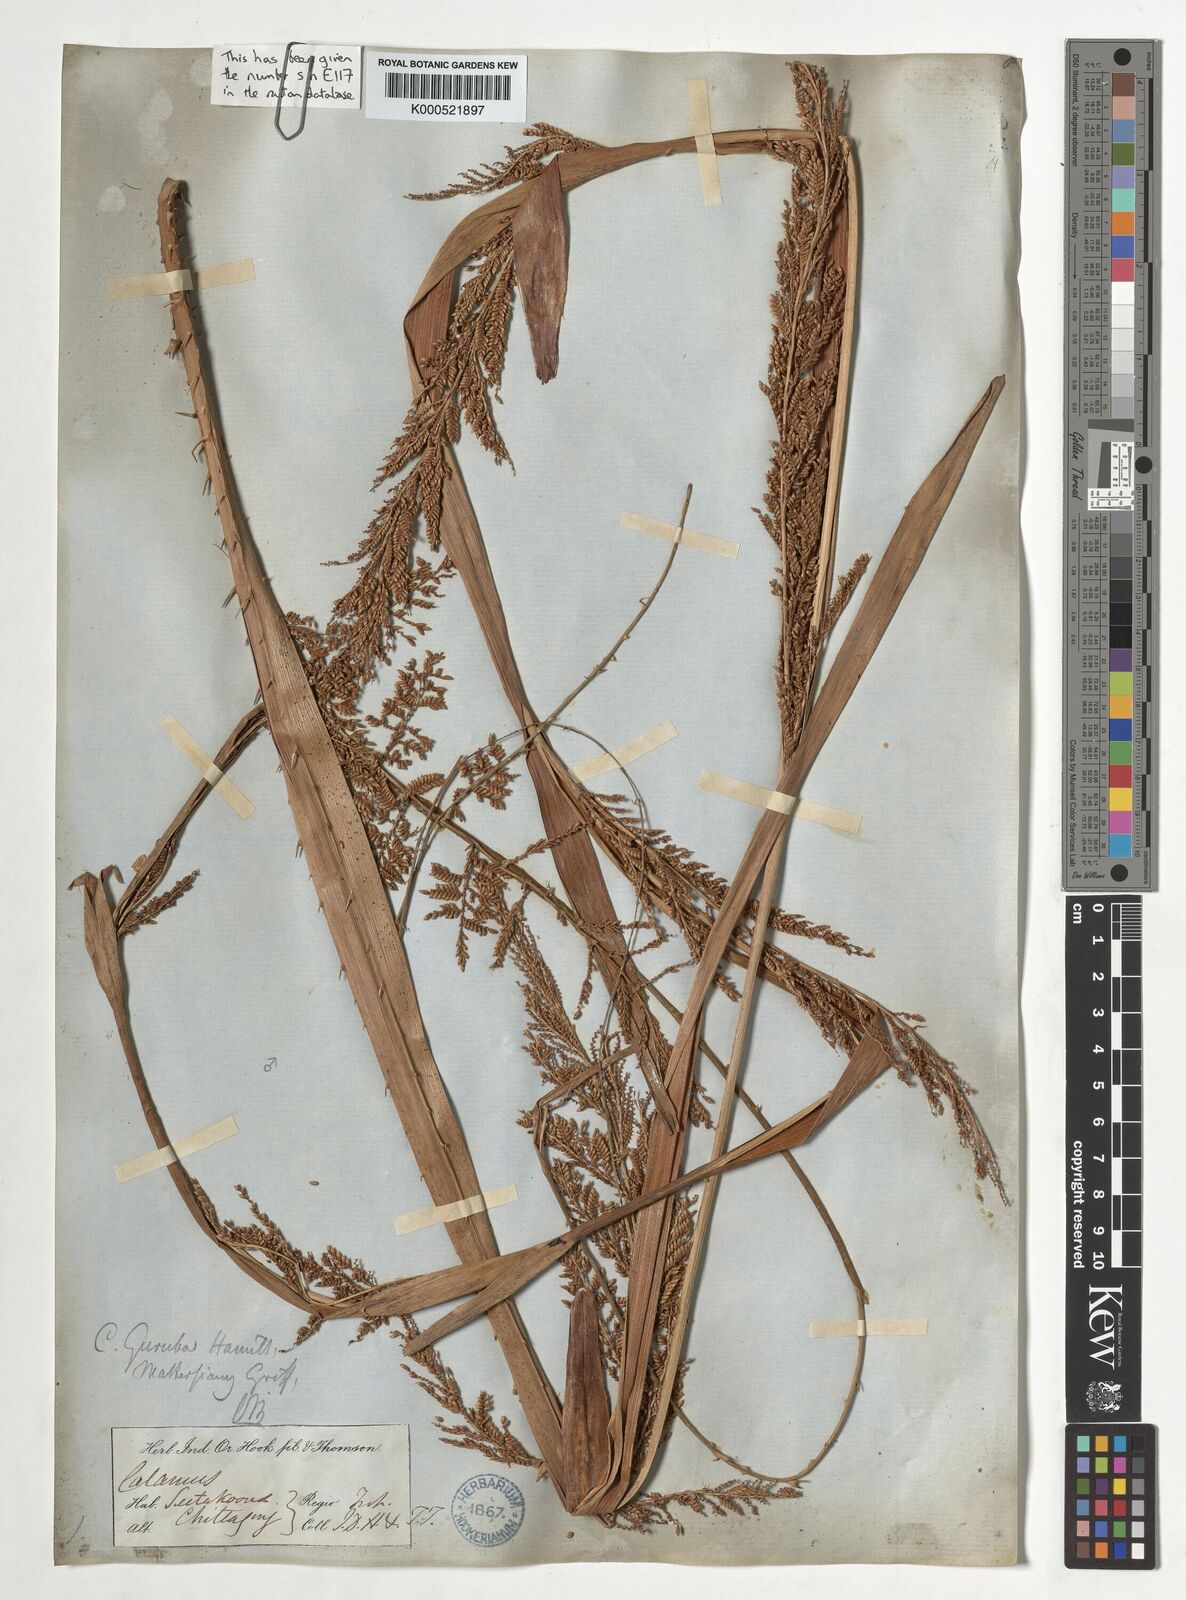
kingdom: Plantae
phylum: Tracheophyta
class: Liliopsida
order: Arecales
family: Arecaceae
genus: Calamus
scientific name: Calamus
